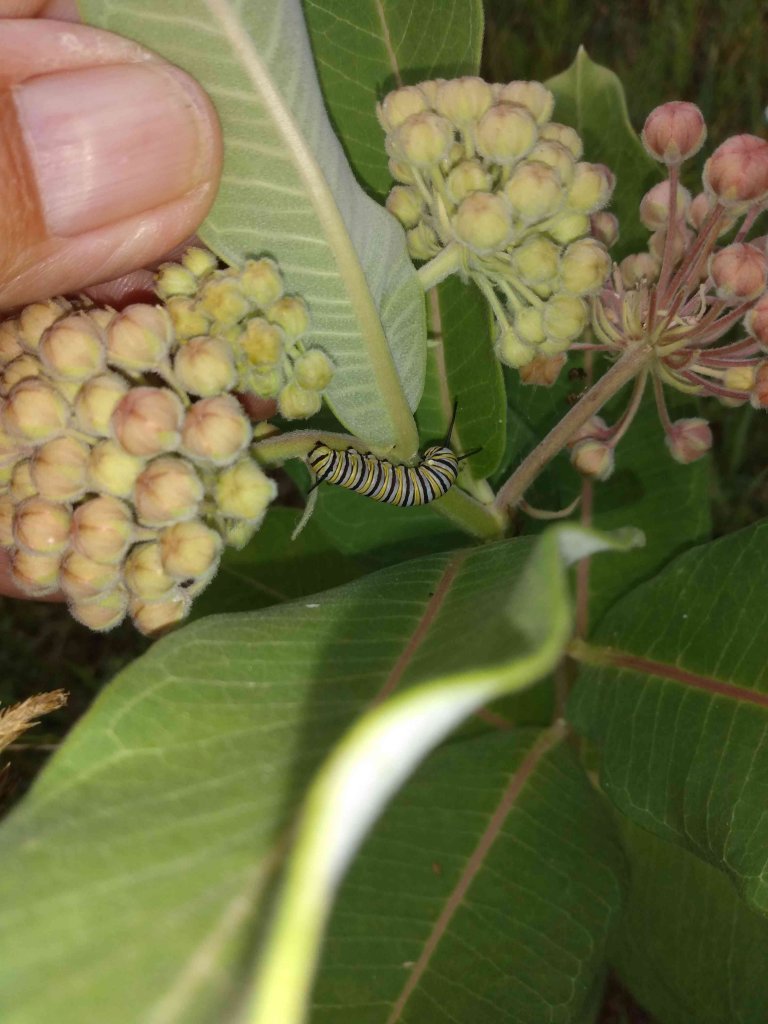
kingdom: Animalia
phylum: Arthropoda
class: Insecta
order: Lepidoptera
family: Nymphalidae
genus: Danaus
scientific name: Danaus plexippus
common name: Monarch
